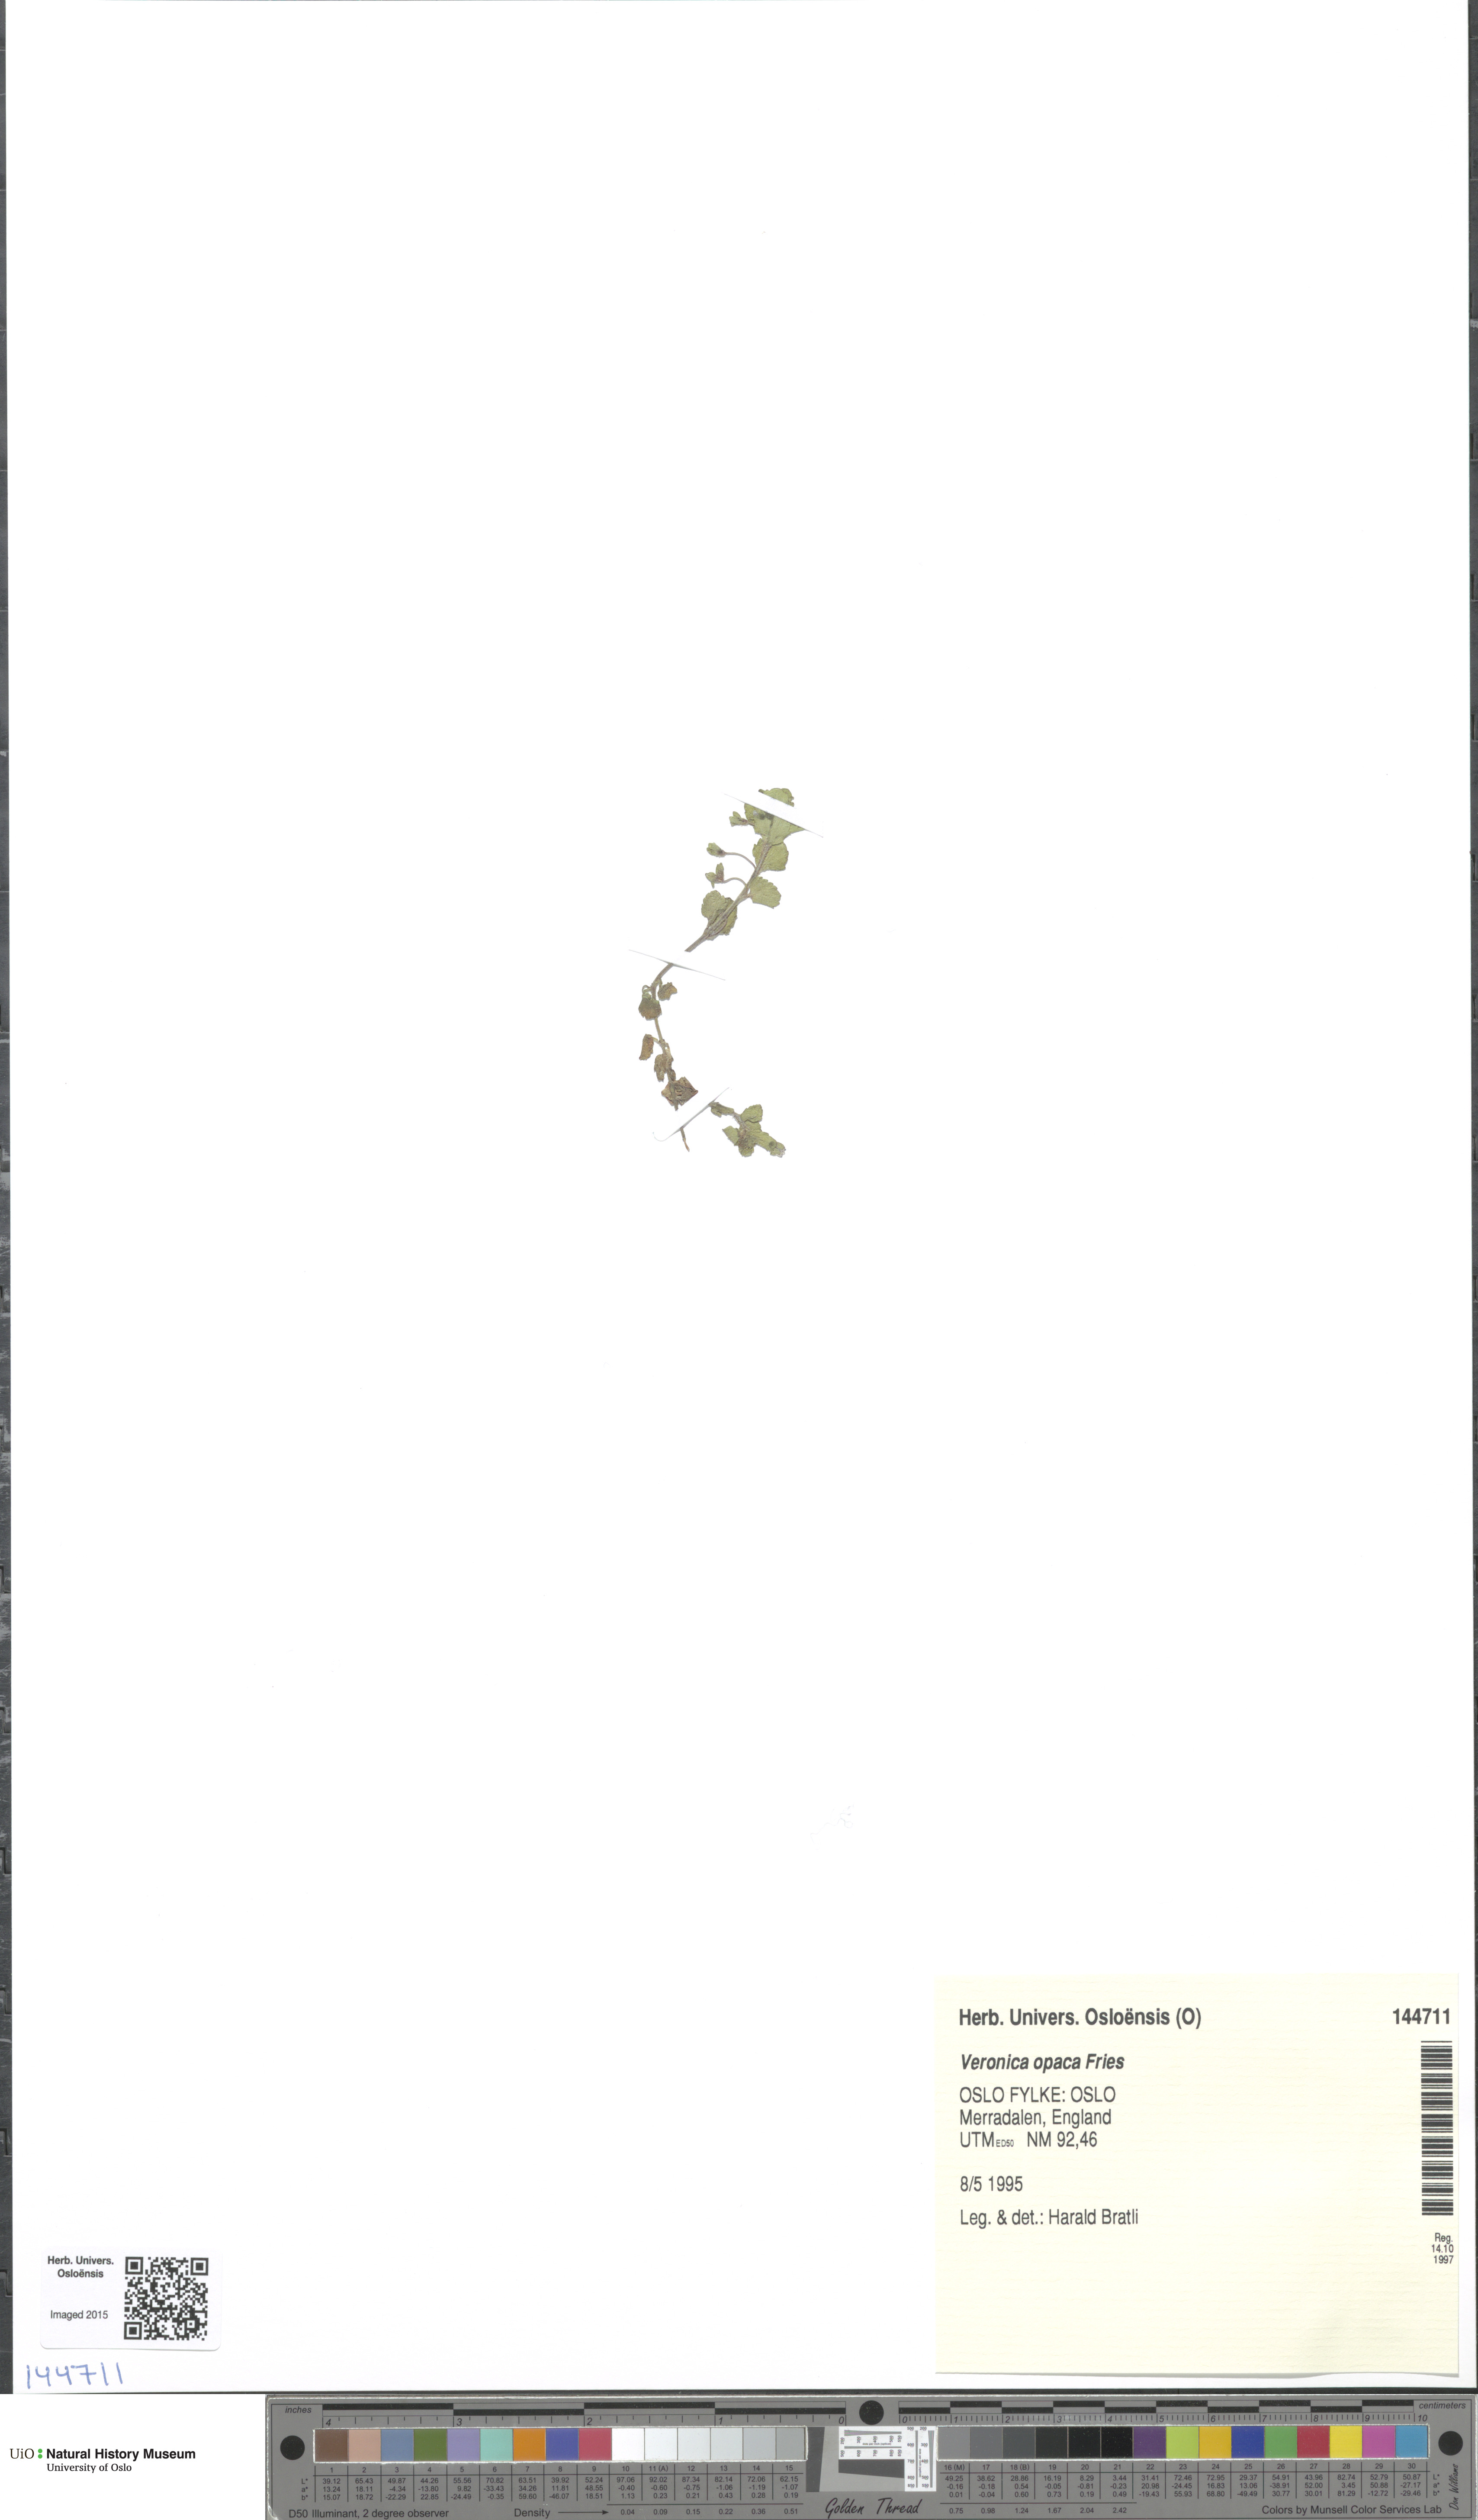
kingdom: Plantae
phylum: Tracheophyta
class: Magnoliopsida
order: Lamiales
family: Plantaginaceae
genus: Veronica
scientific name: Veronica opaca
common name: Dark speedwell
